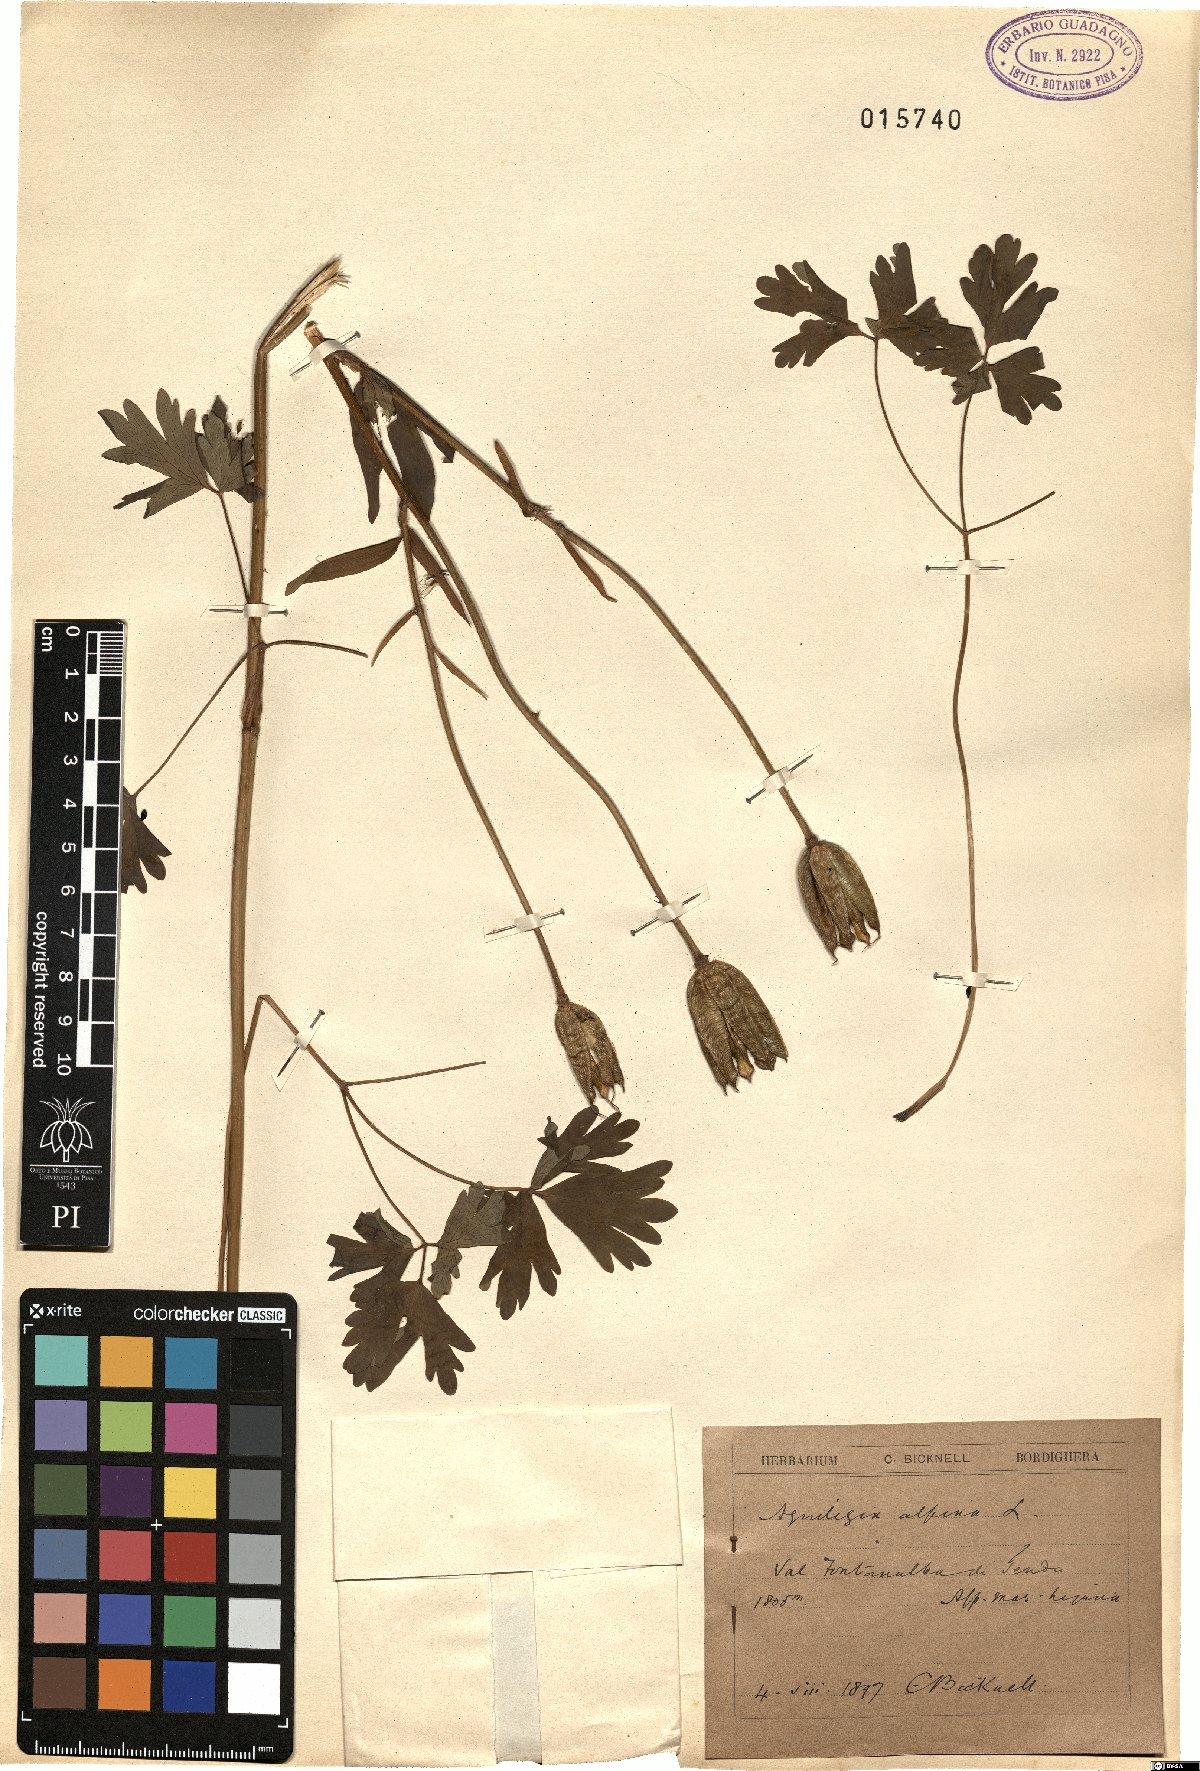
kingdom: Plantae
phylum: Tracheophyta
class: Magnoliopsida
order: Ranunculales
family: Ranunculaceae
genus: Aquilegia
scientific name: Aquilegia alpina
